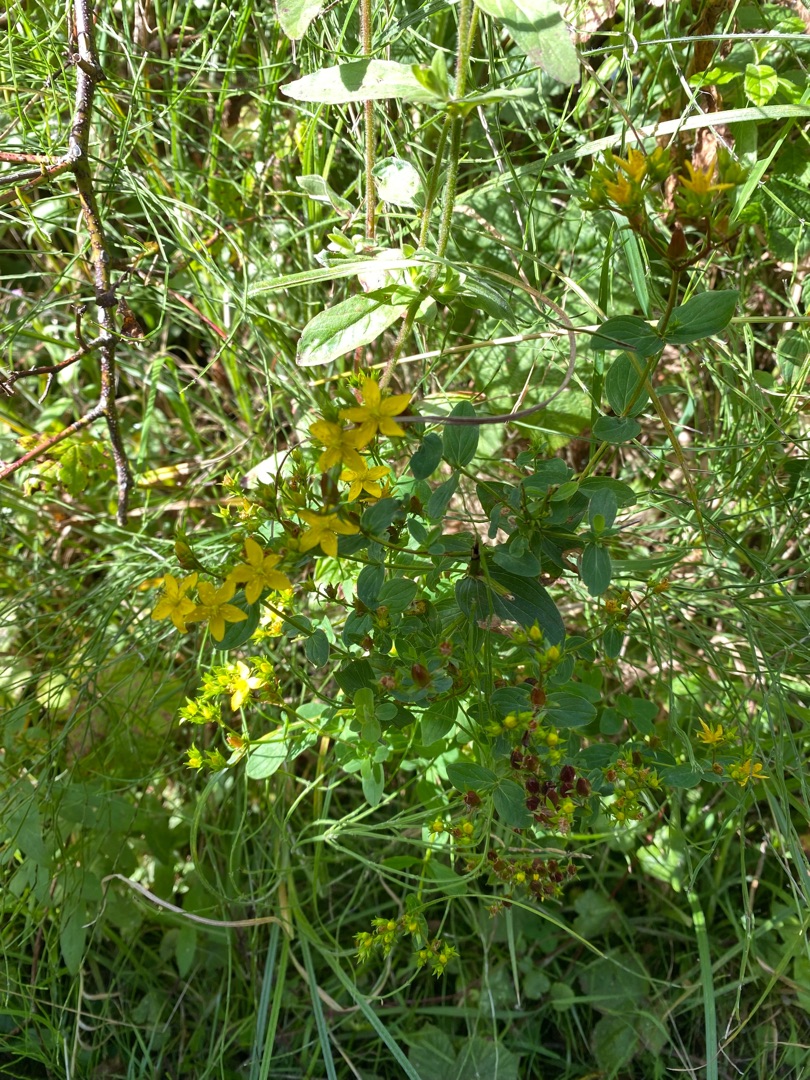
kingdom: Plantae
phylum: Tracheophyta
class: Magnoliopsida
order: Malpighiales
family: Hypericaceae
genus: Hypericum
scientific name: Hypericum tetrapterum
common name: Vinget perikon
